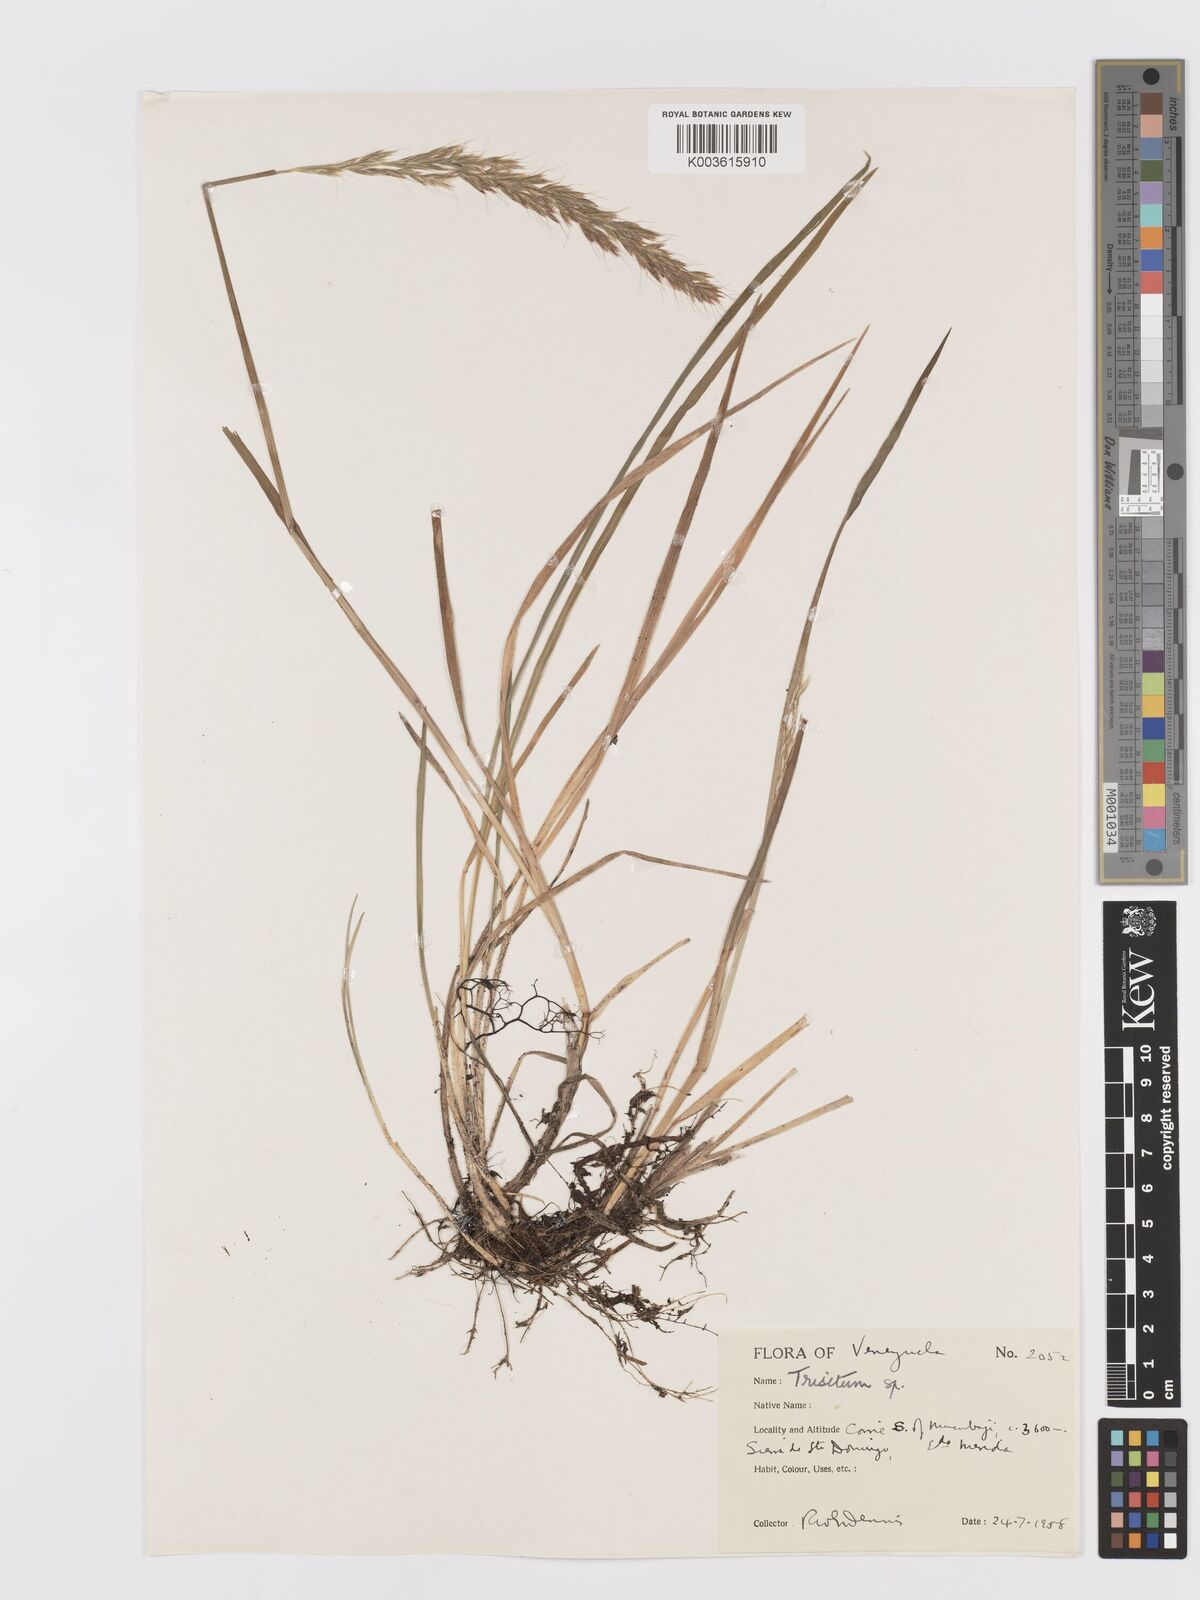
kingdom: Plantae
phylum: Tracheophyta
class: Liliopsida
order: Poales
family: Poaceae
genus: Trisetum
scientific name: Trisetum
